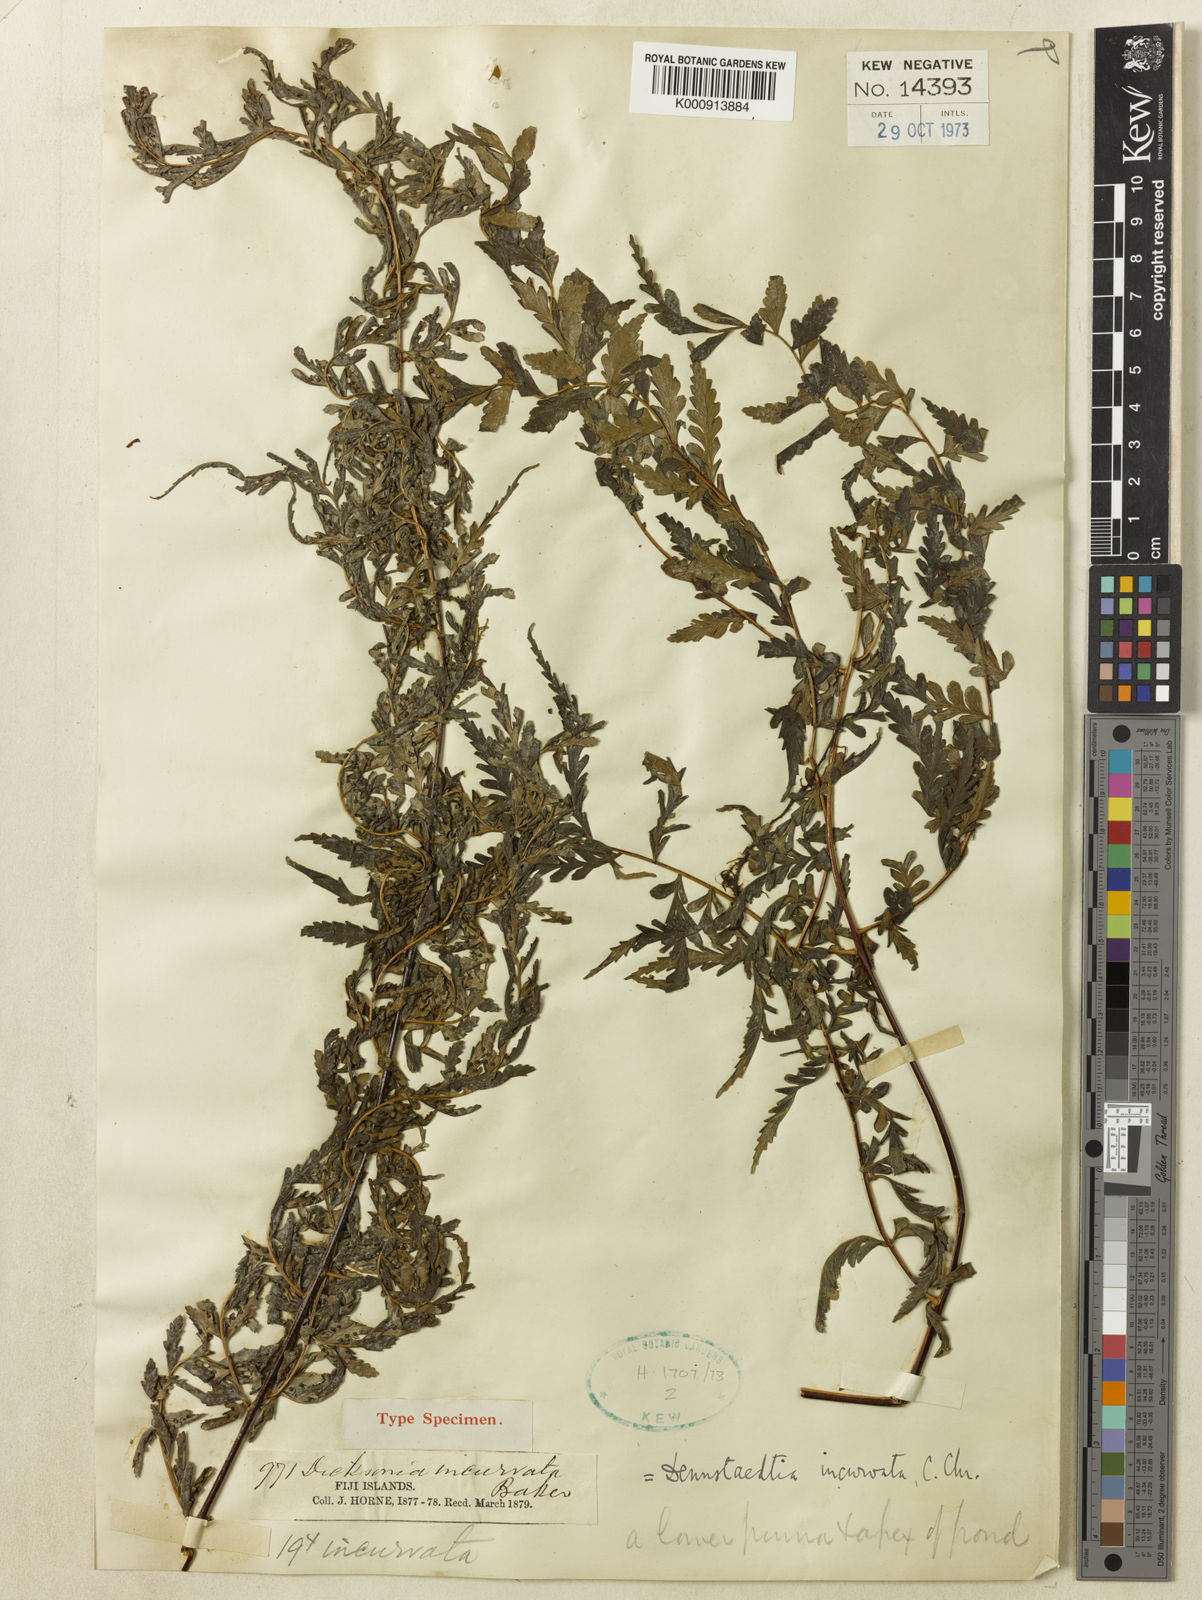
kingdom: Plantae
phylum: Tracheophyta
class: Polypodiopsida
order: Polypodiales
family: Dennstaedtiaceae
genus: Dennstaedtia
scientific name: Dennstaedtia glabrata
